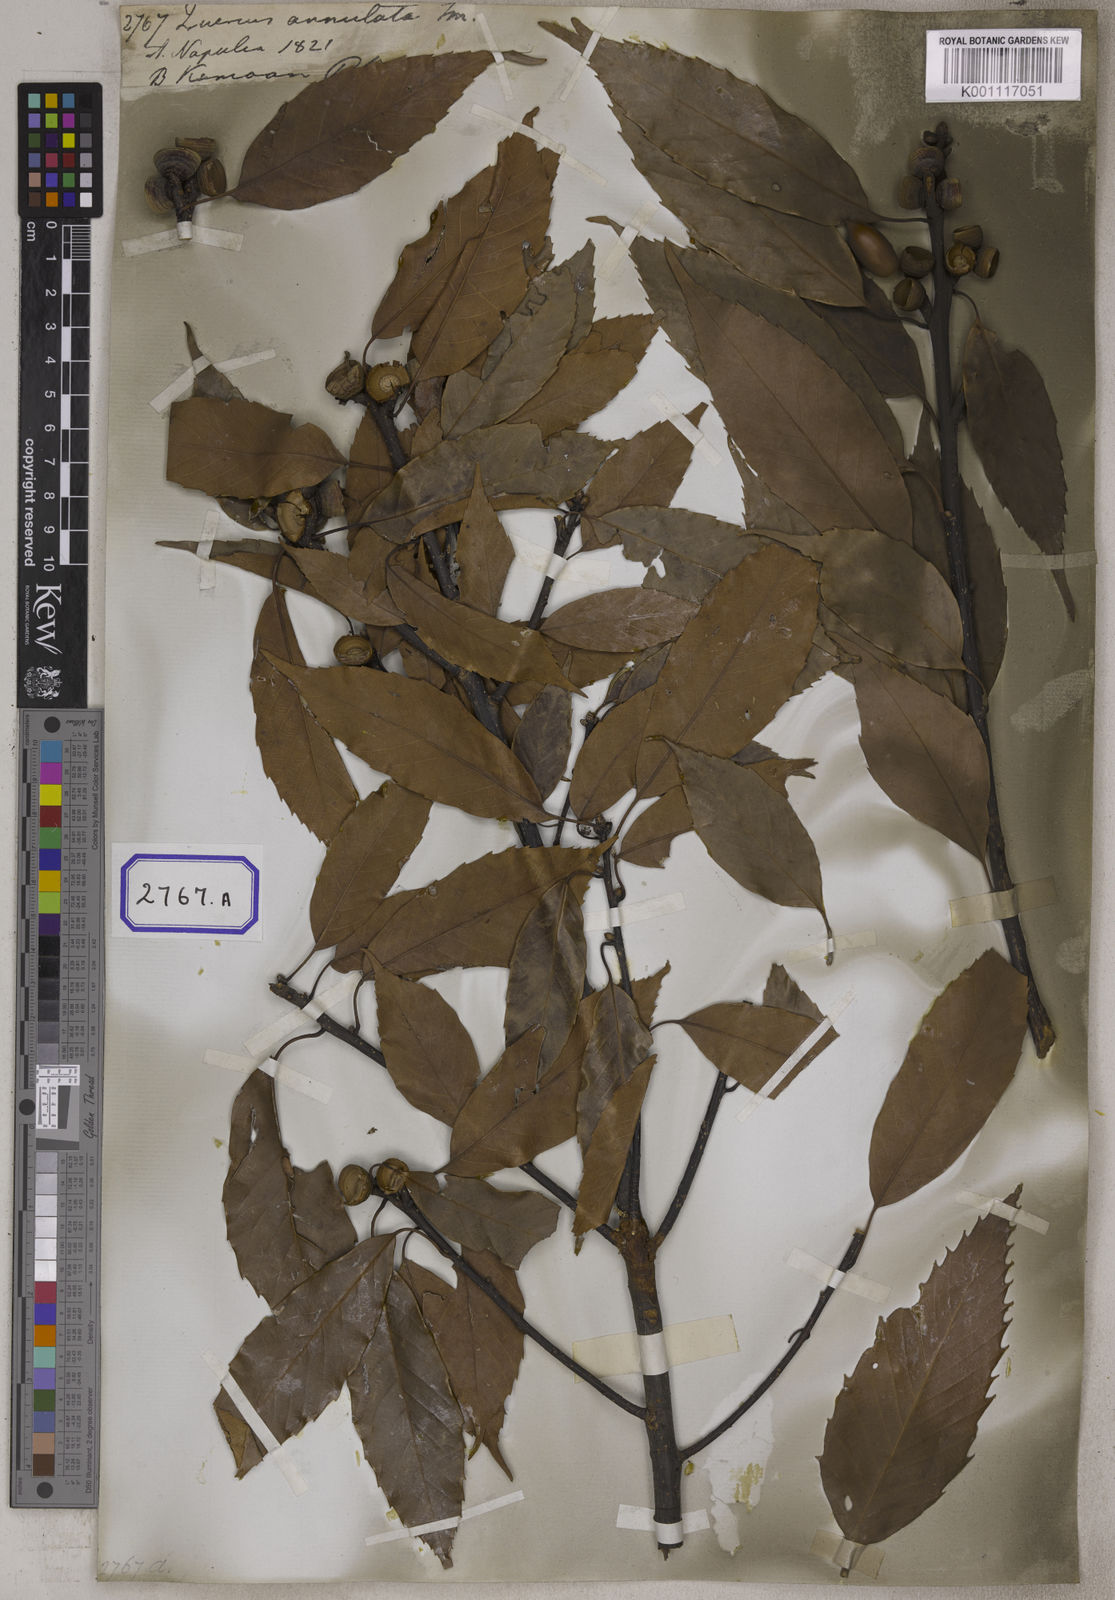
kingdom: Plantae
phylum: Tracheophyta
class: Magnoliopsida
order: Fagales
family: Fagaceae
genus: Quercus
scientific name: Quercus annulata
